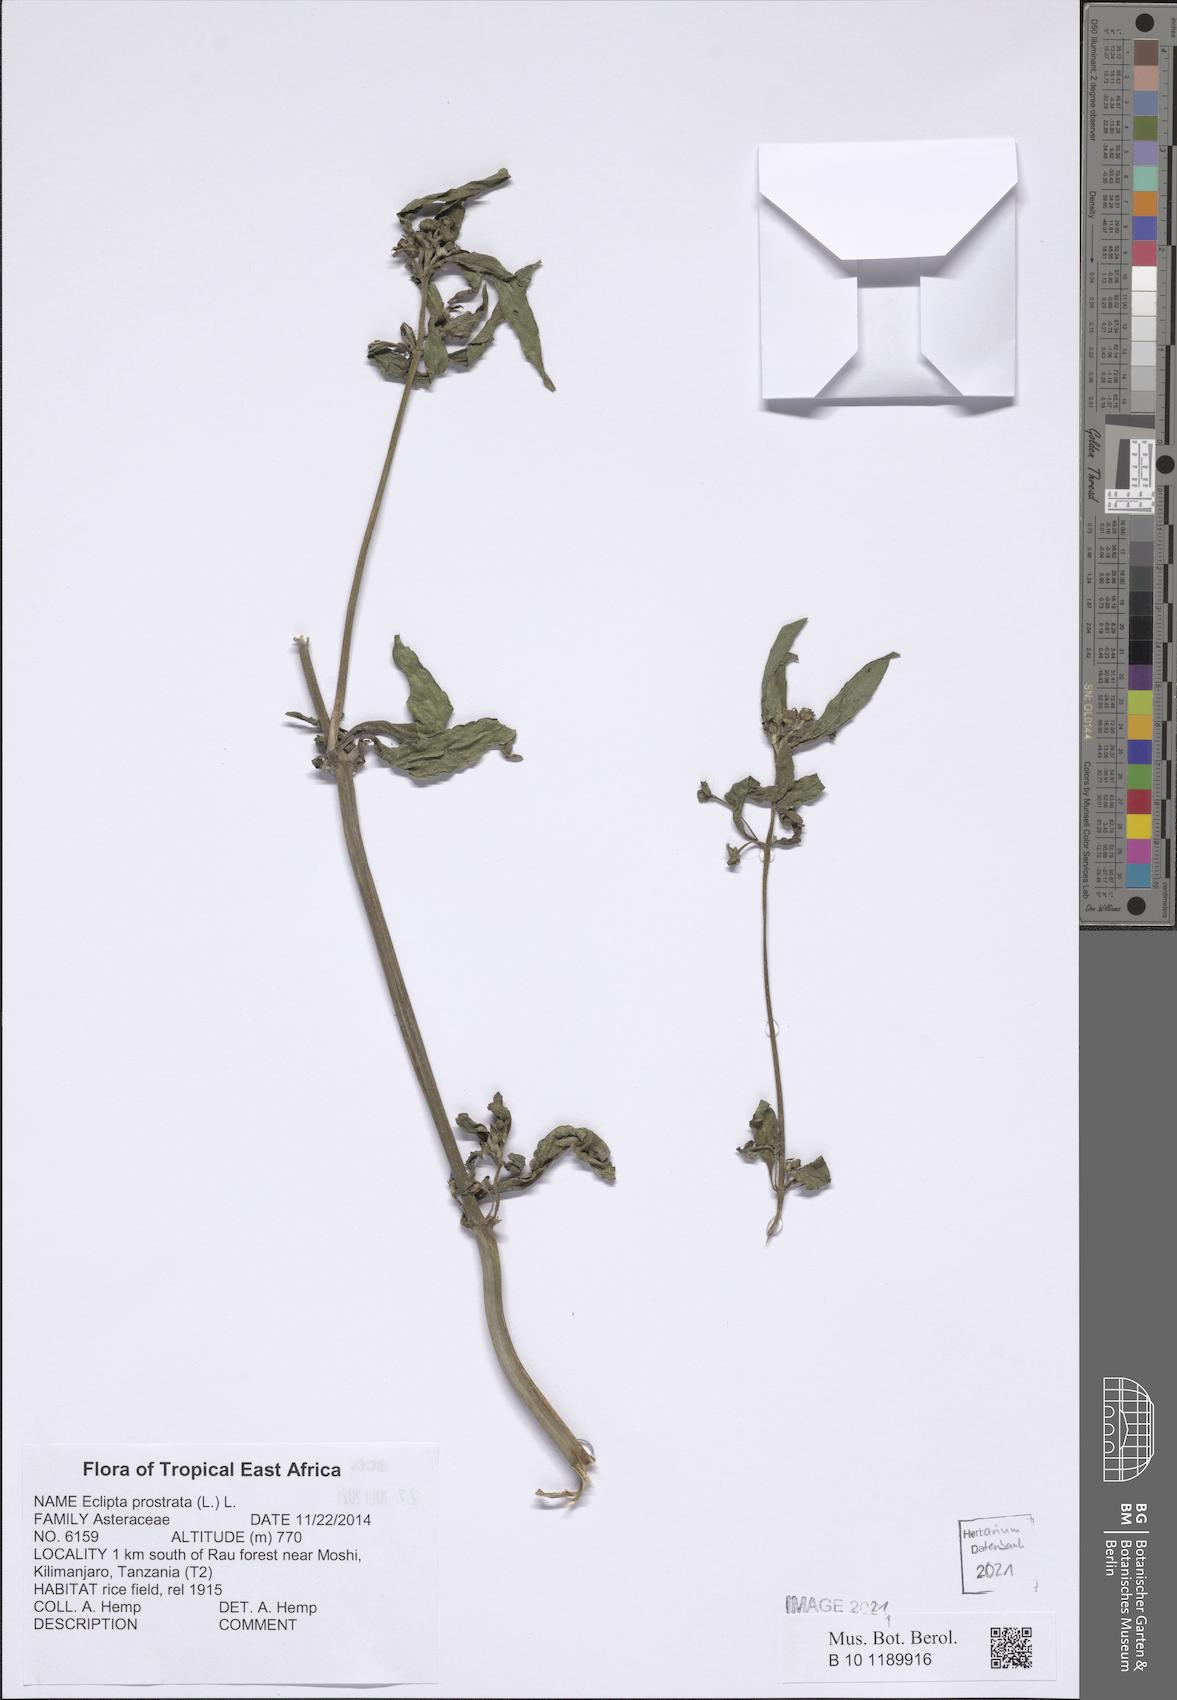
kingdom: Plantae
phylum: Tracheophyta
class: Magnoliopsida
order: Asterales
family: Asteraceae
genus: Eclipta
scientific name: Eclipta prostrata
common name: False daisy
